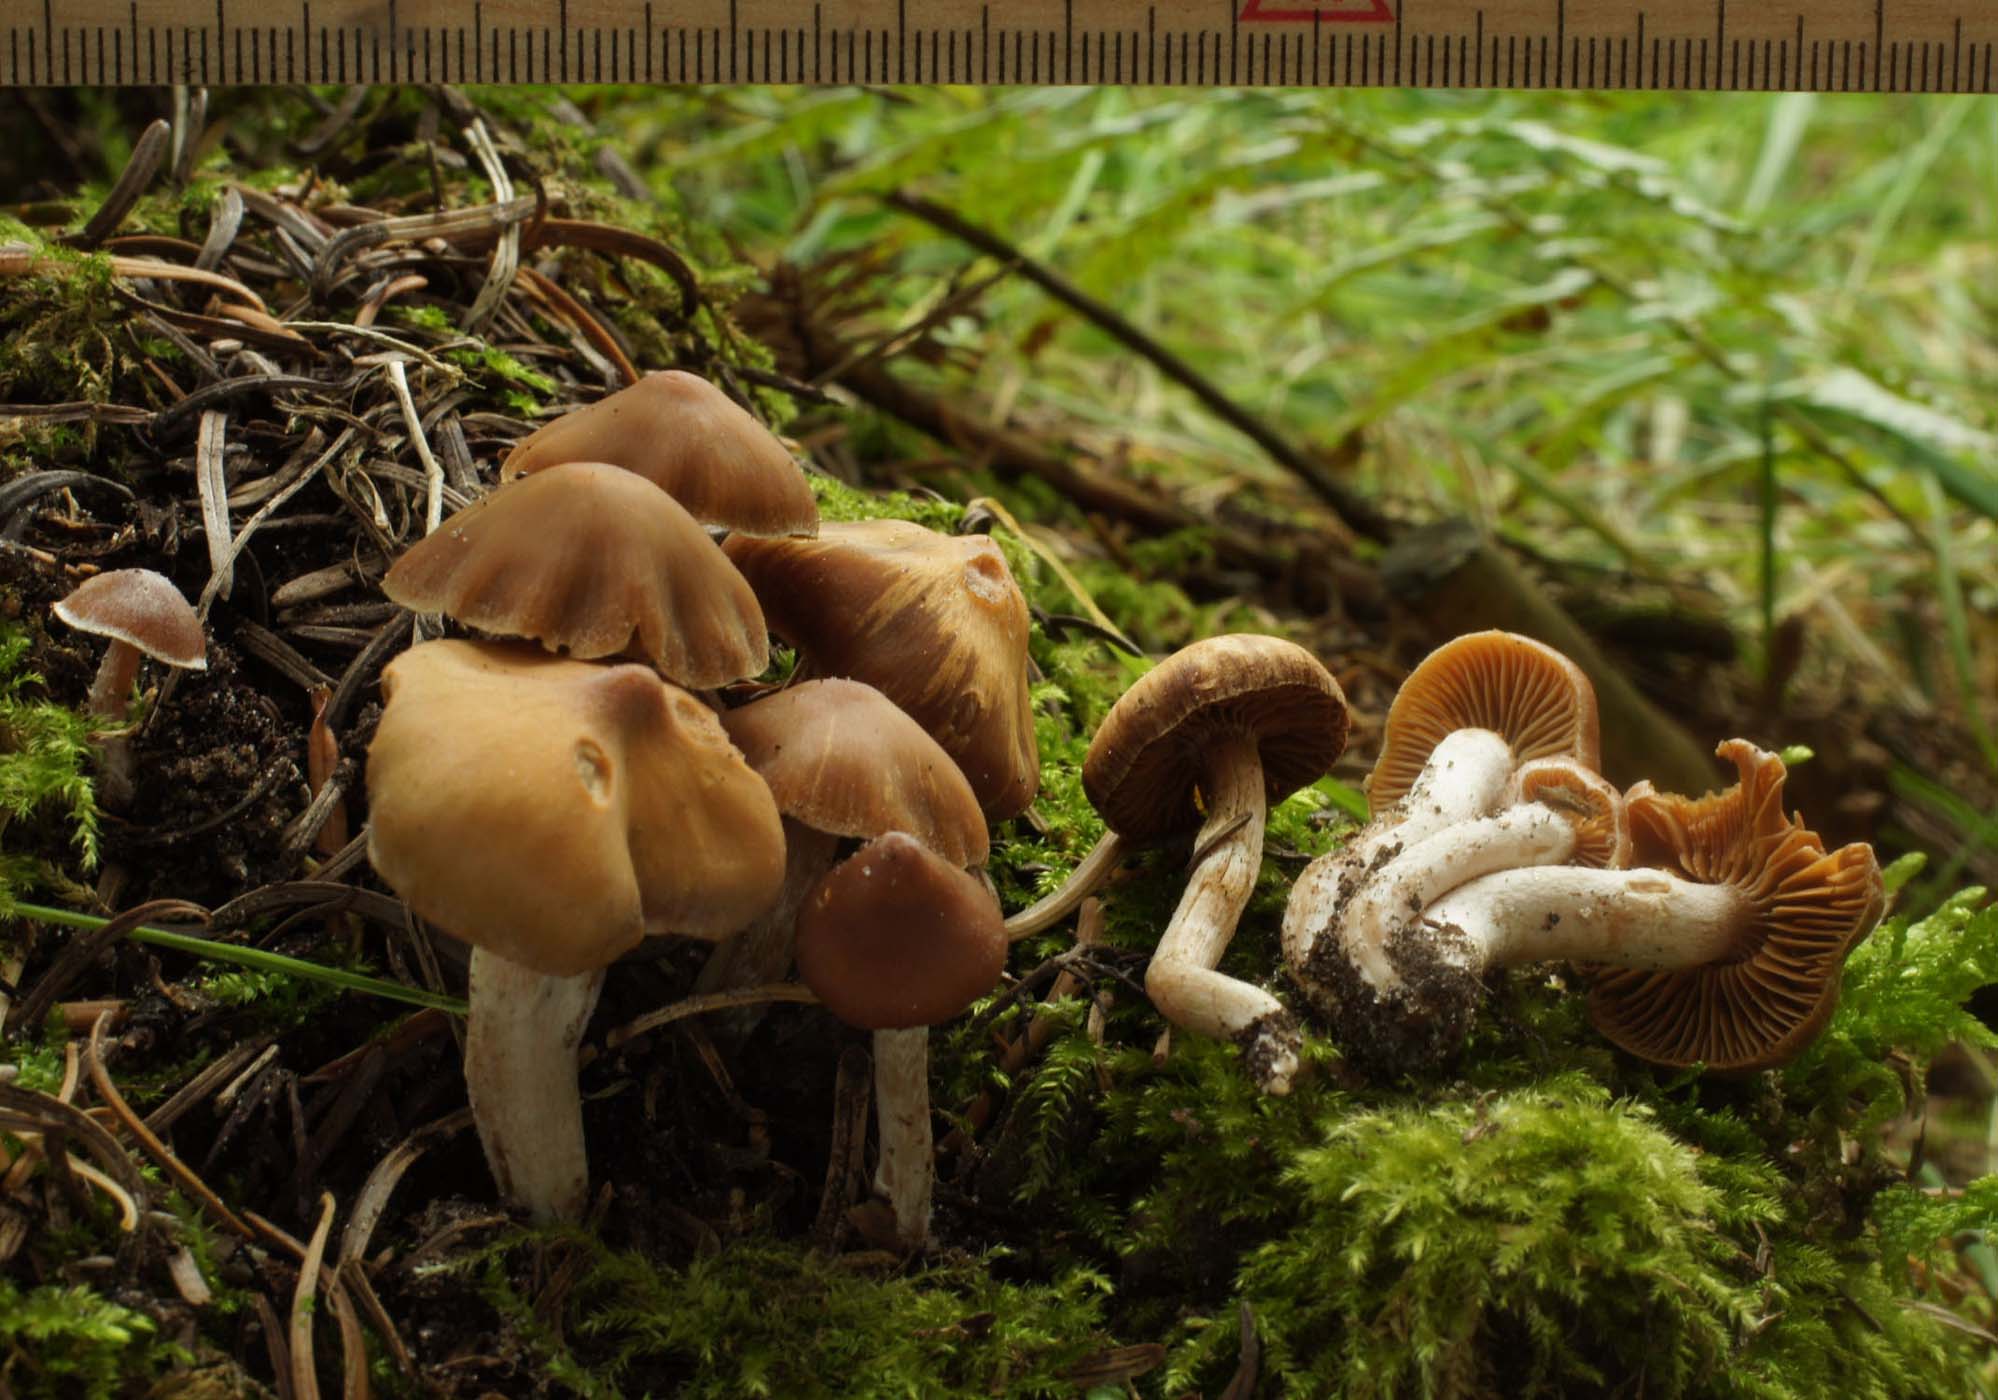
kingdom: Fungi
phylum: Basidiomycota
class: Agaricomycetes
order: Agaricales
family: Cortinariaceae
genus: Cortinarius
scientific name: Cortinarius obtusorum
